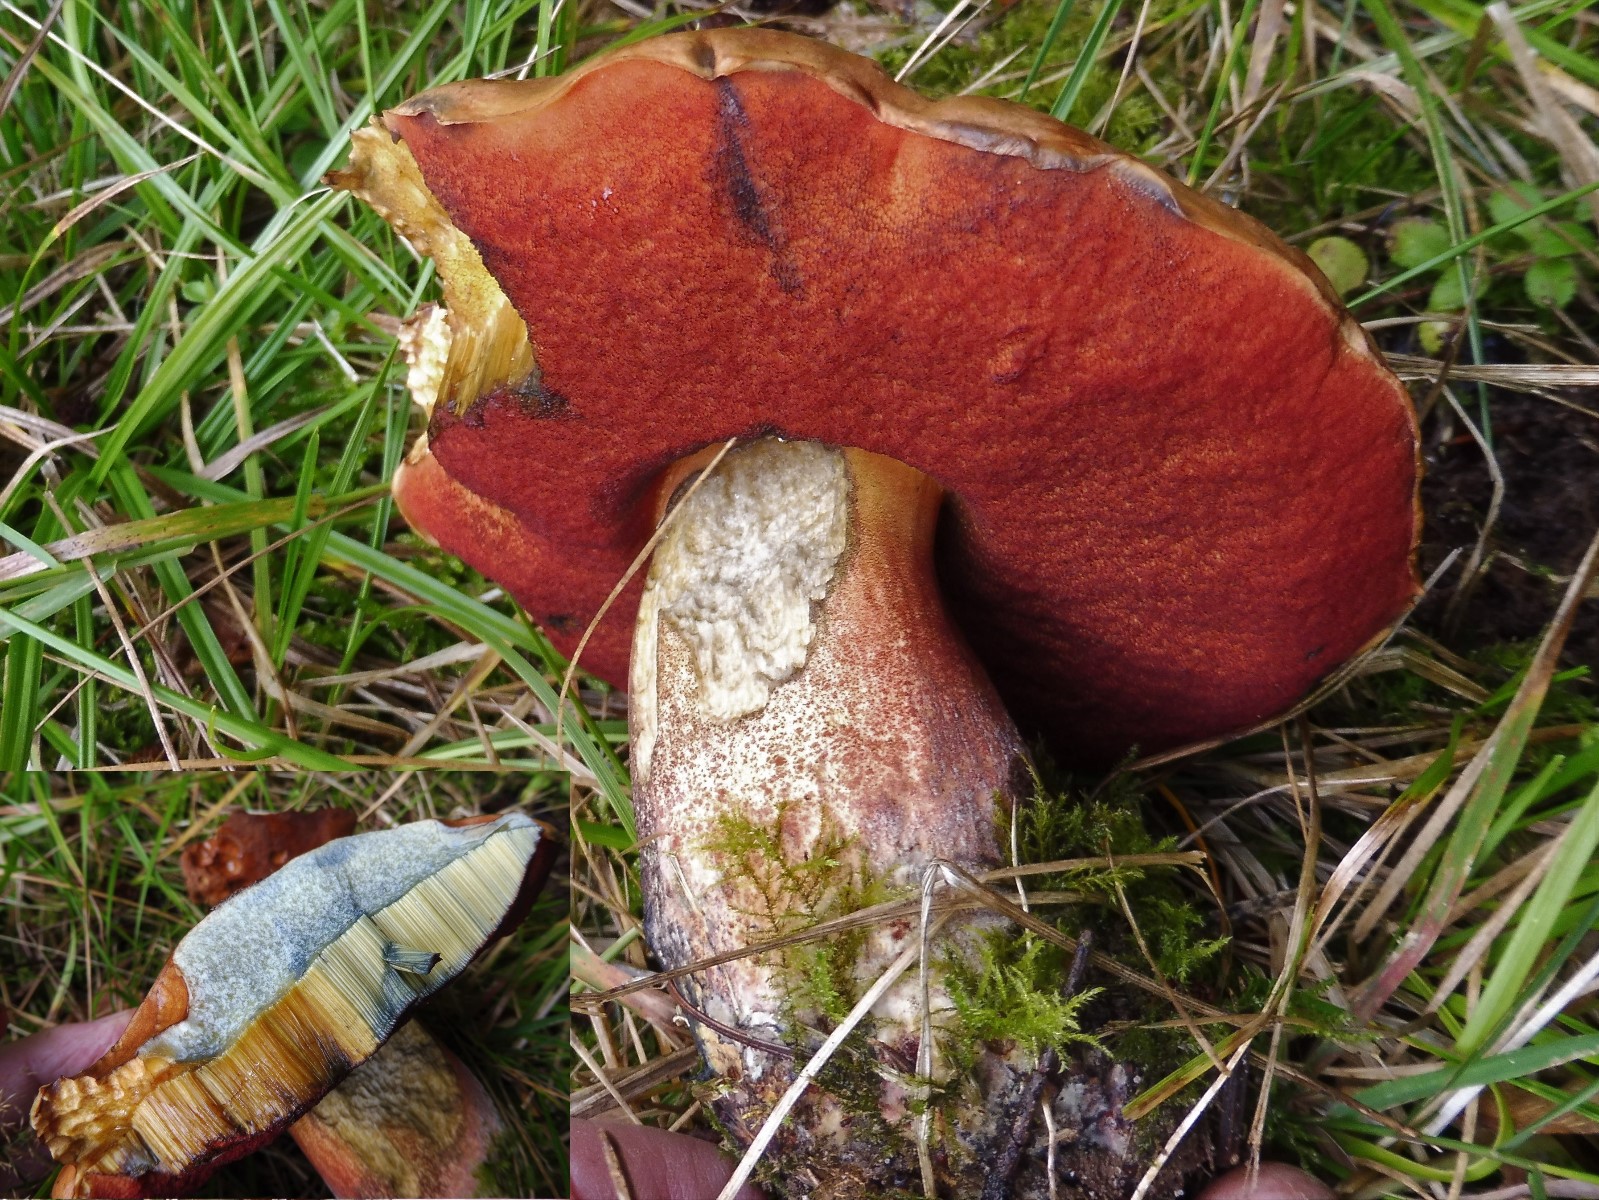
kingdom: Fungi
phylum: Basidiomycota
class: Agaricomycetes
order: Boletales
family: Boletaceae
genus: Neoboletus
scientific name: Neoboletus erythropus
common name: punktstokket indigorørhat
